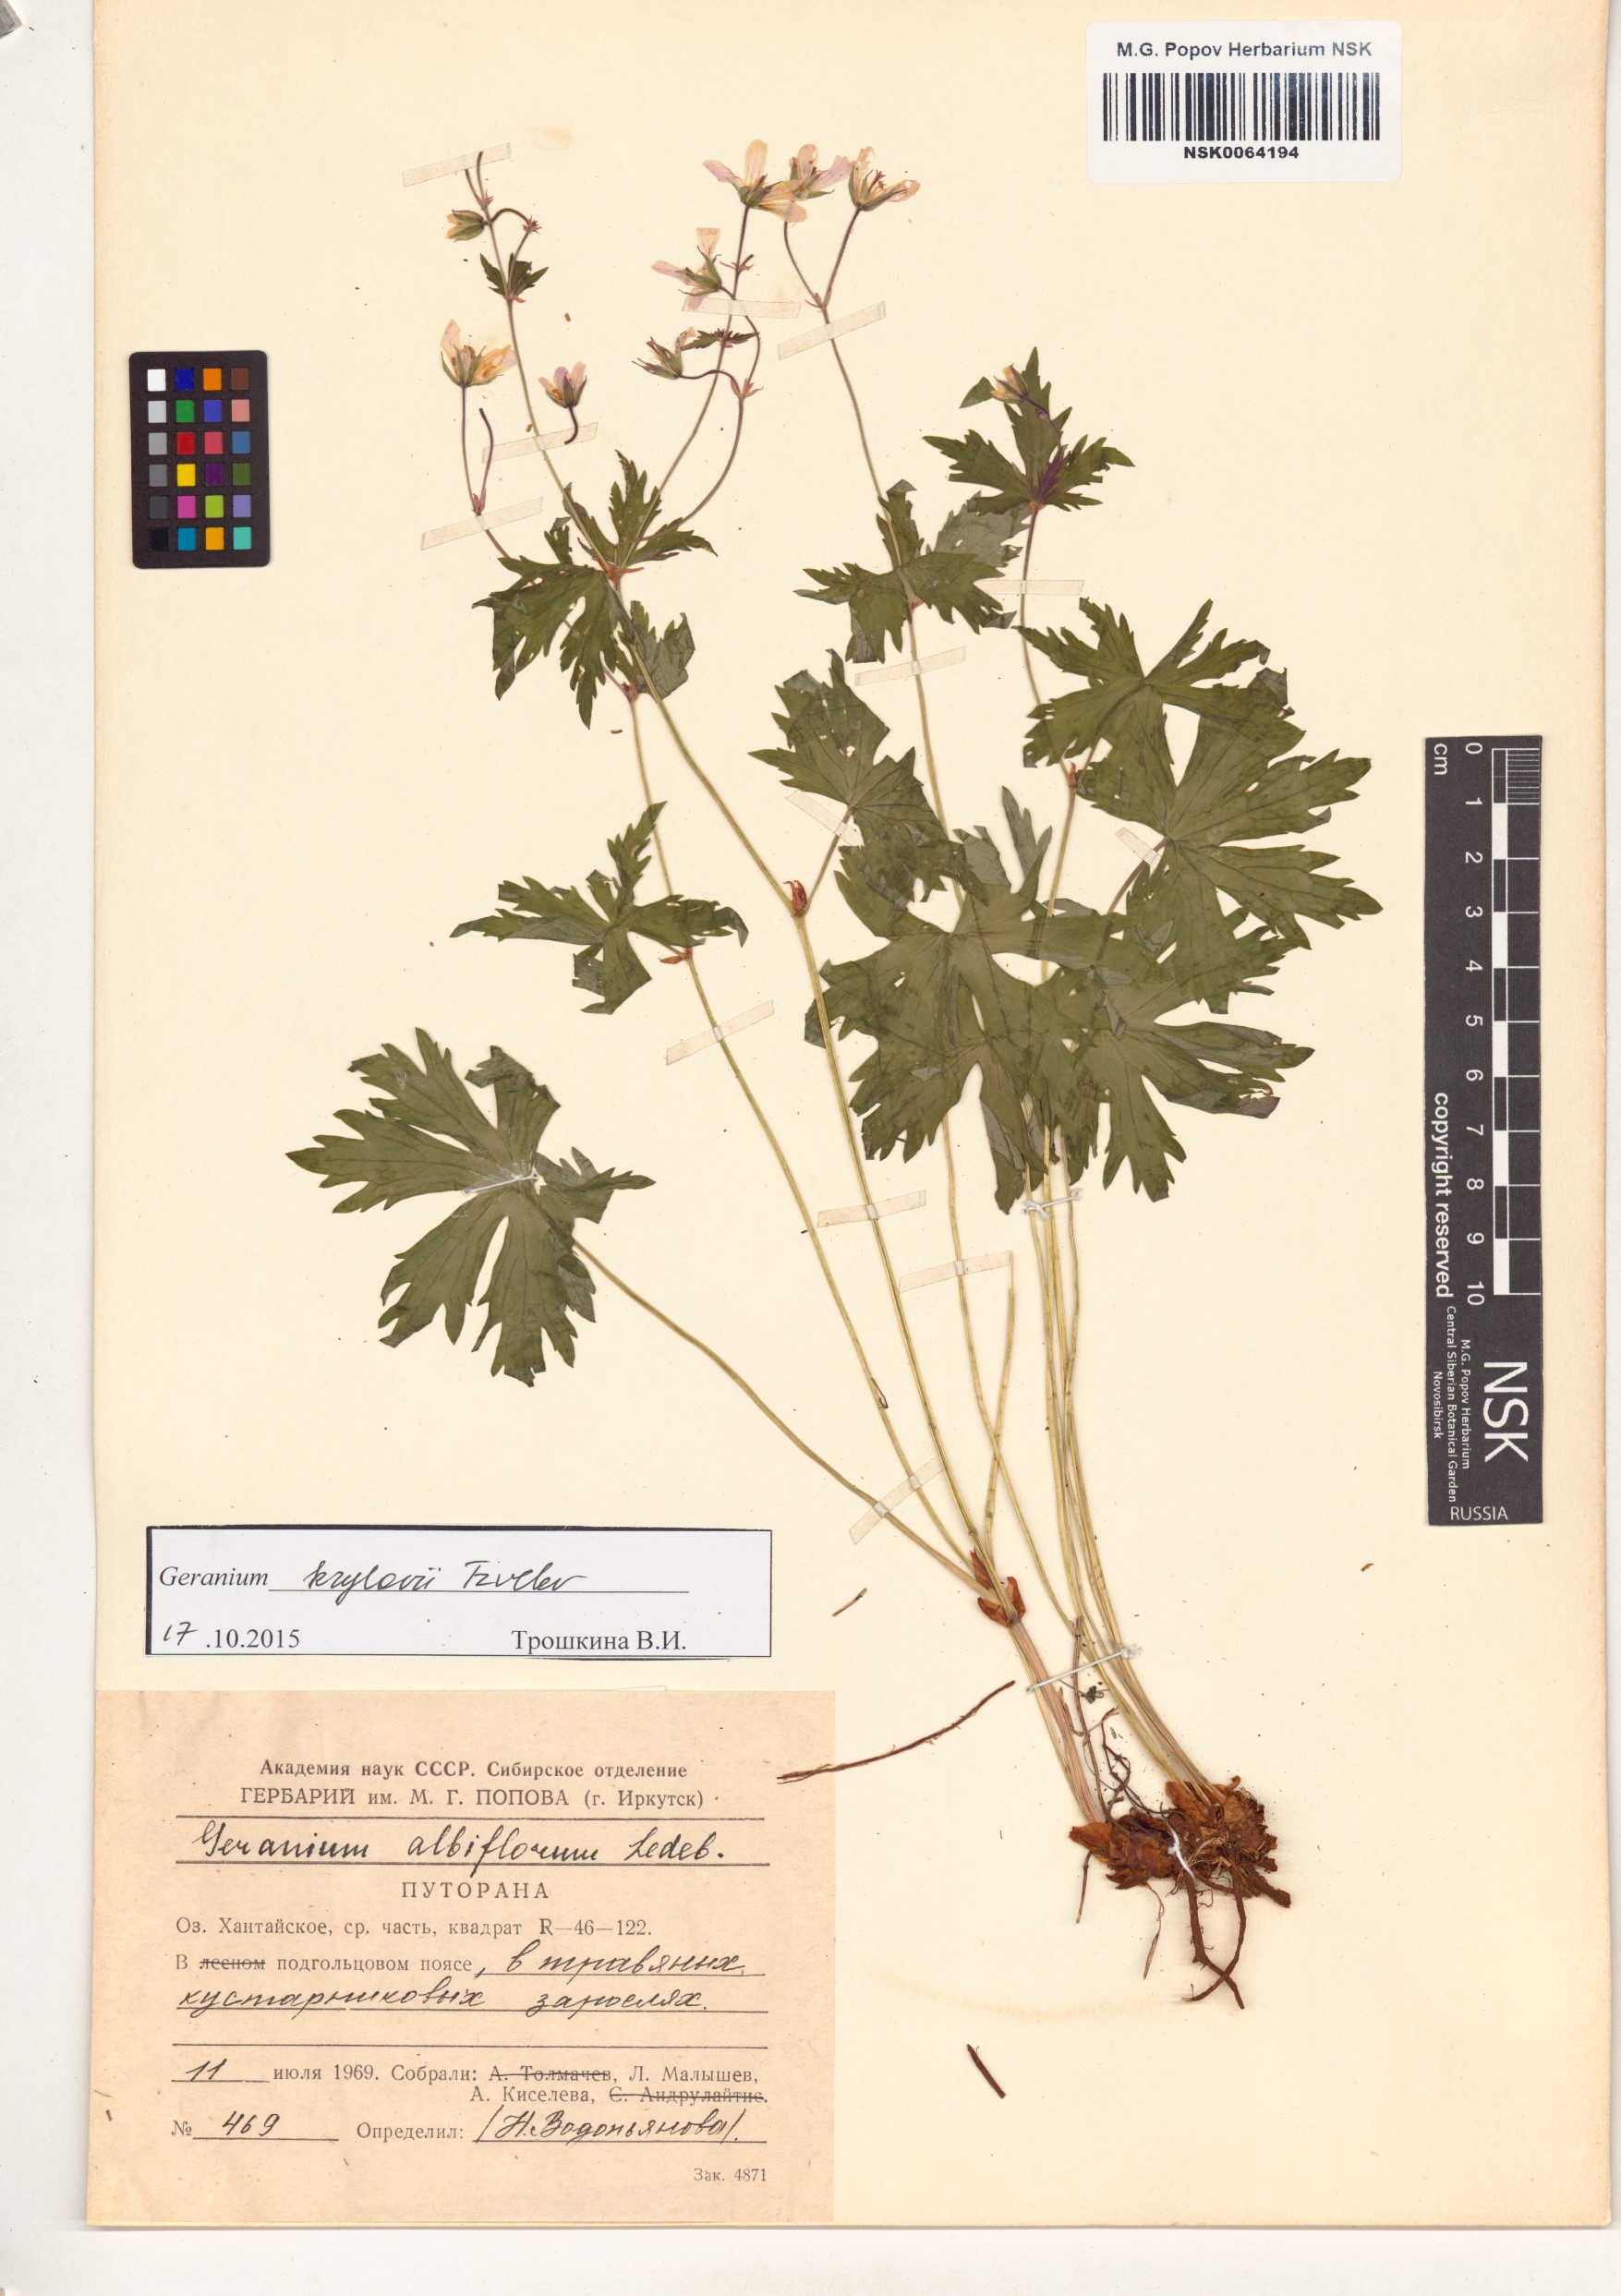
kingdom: Plantae
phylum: Tracheophyta
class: Magnoliopsida
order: Geraniales
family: Geraniaceae
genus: Geranium
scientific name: Geranium sylvaticum
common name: Wood crane's-bill
